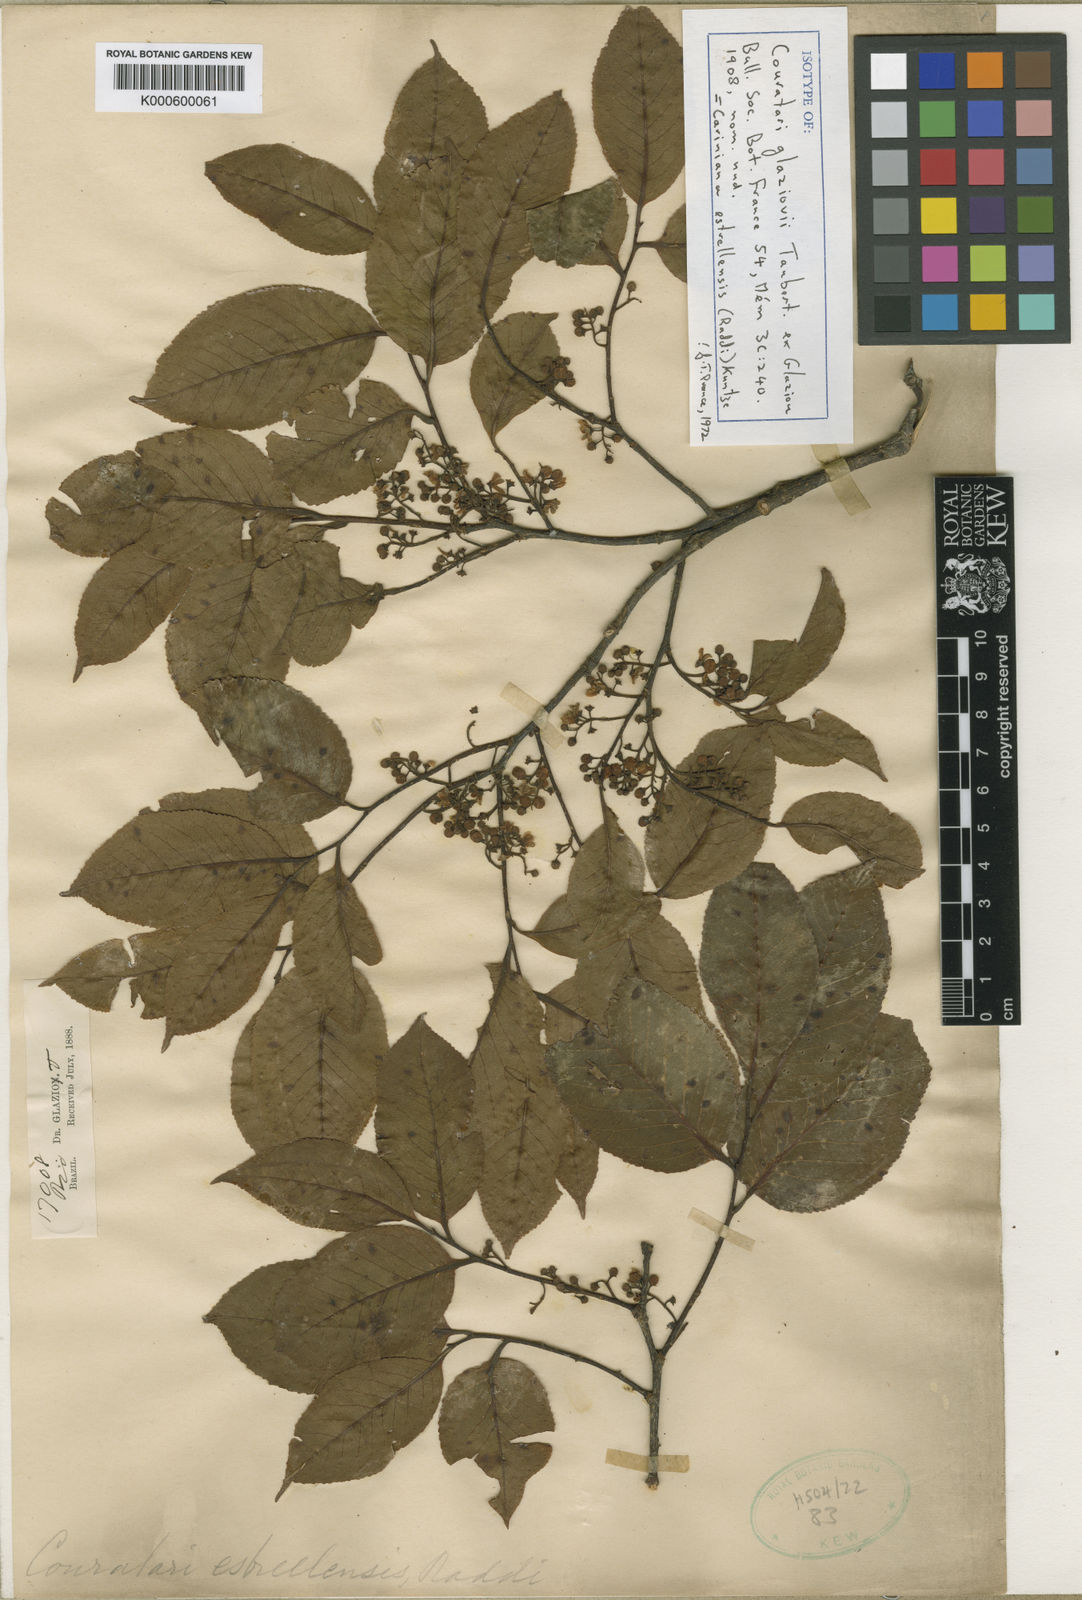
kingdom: Plantae
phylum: Tracheophyta
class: Magnoliopsida
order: Ericales
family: Lecythidaceae
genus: Cariniana
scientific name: Cariniana estrellensis
